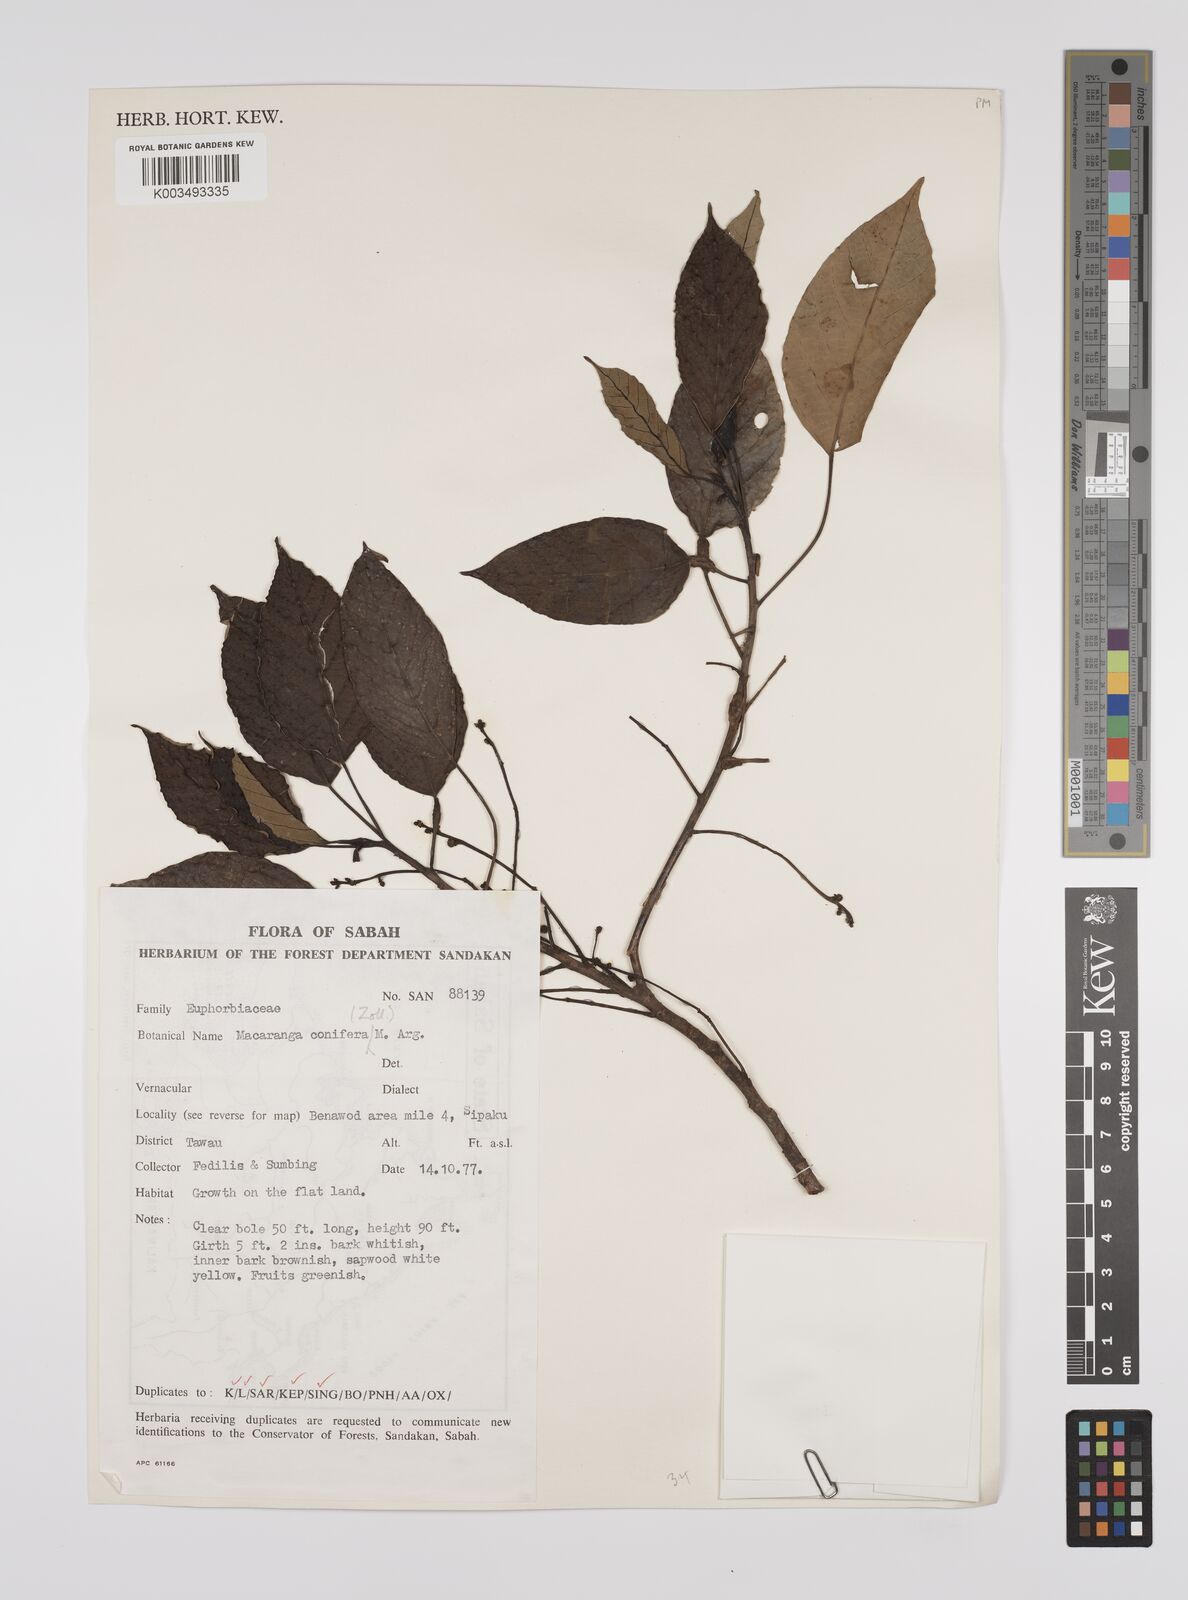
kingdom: Plantae
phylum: Tracheophyta
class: Magnoliopsida
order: Malpighiales
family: Euphorbiaceae
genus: Macaranga
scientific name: Macaranga conifera
